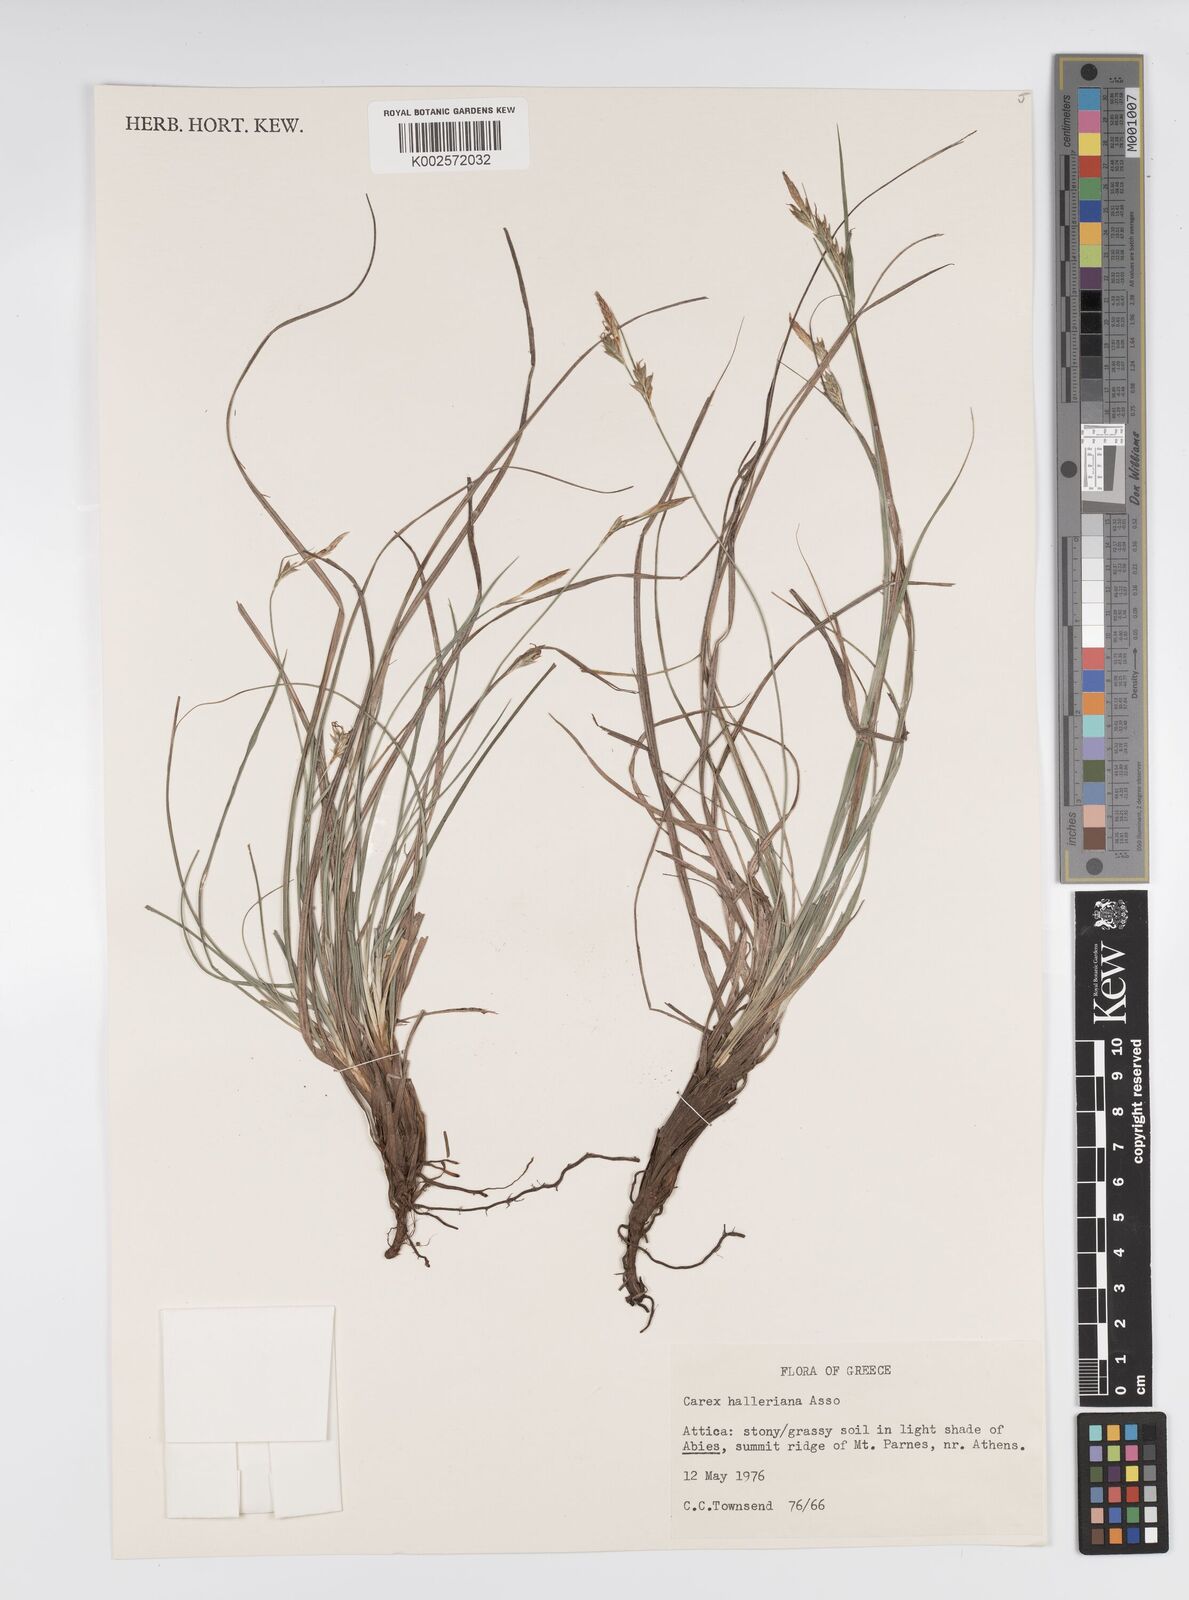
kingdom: Plantae
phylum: Tracheophyta
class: Liliopsida
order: Poales
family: Cyperaceae
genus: Carex
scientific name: Carex halleriana
